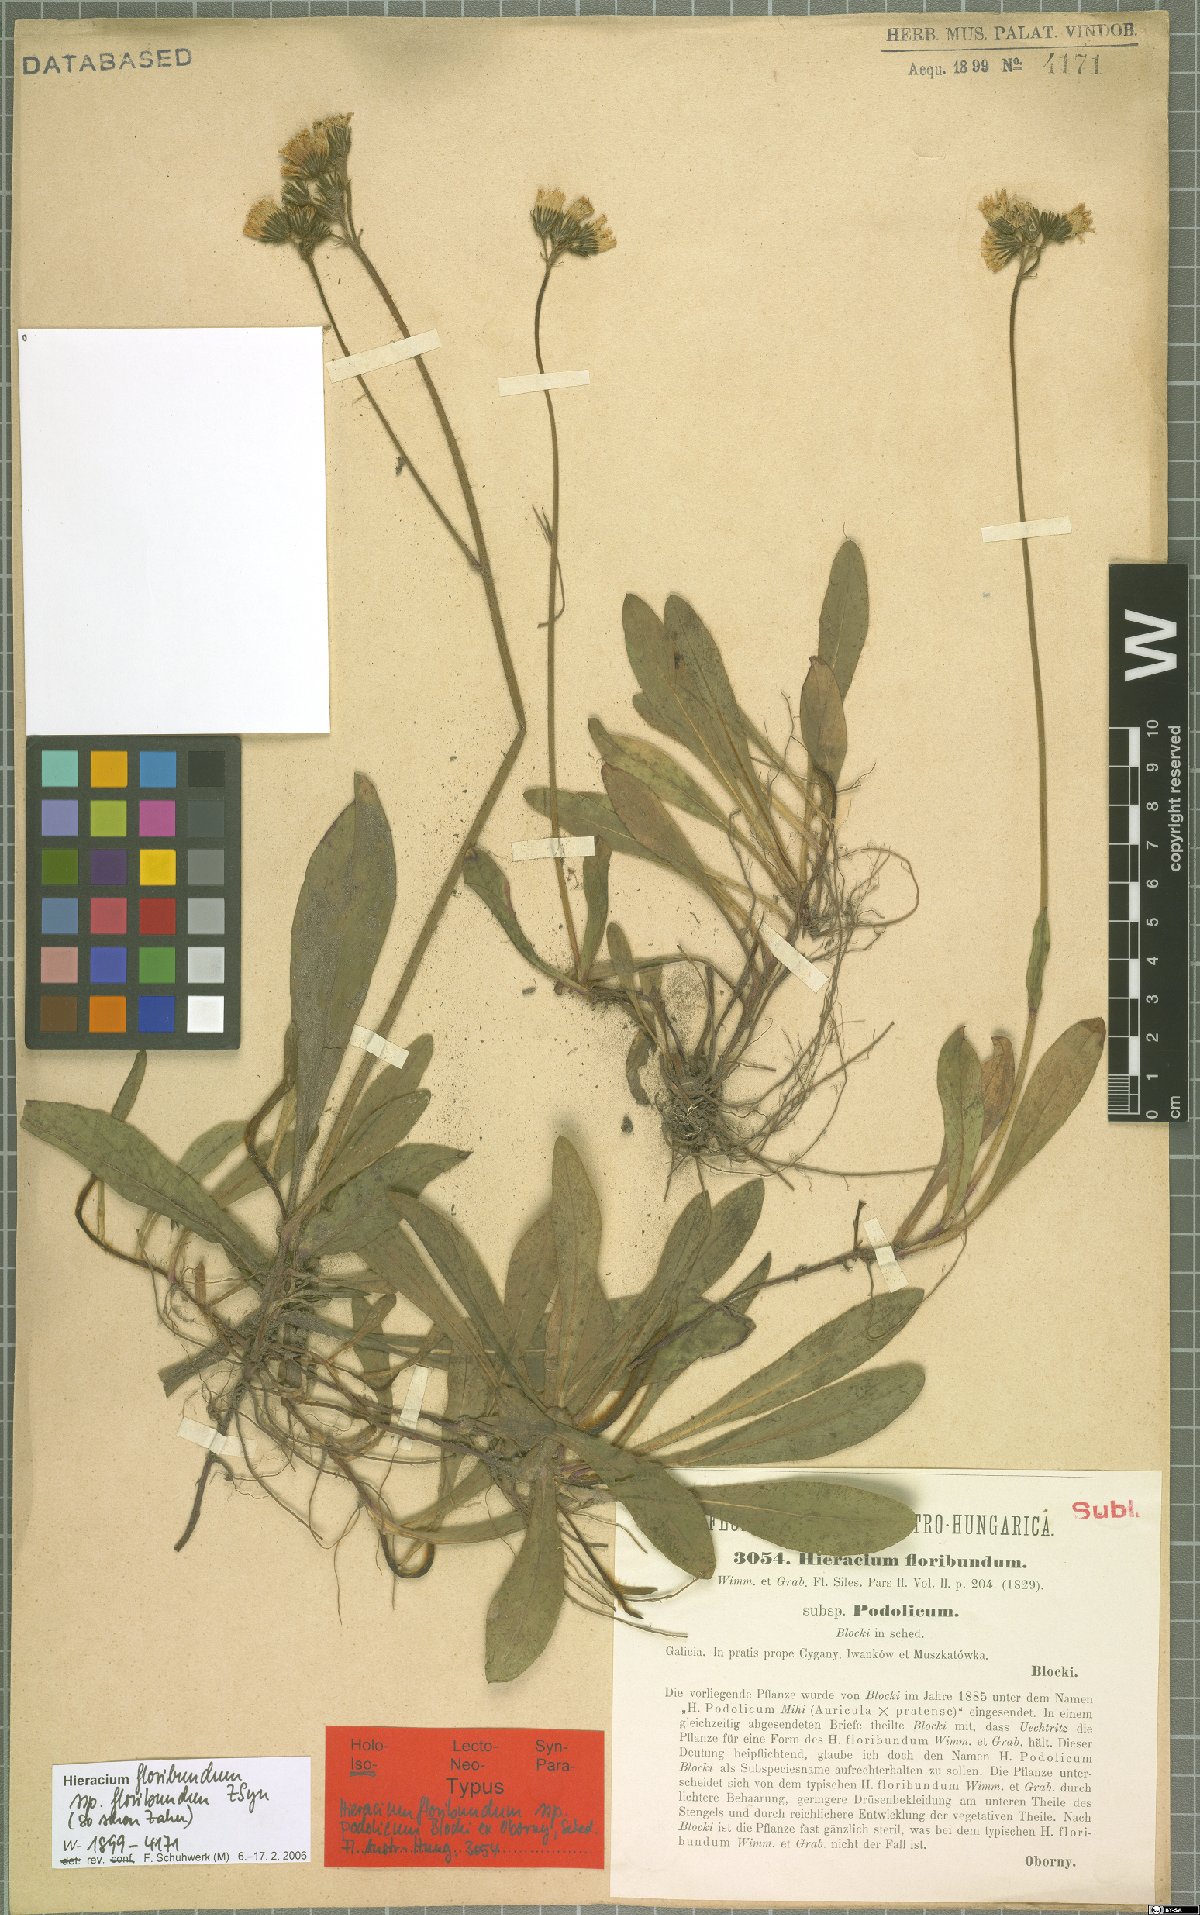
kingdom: Plantae
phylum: Tracheophyta
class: Magnoliopsida
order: Asterales
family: Asteraceae
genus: Pilosella
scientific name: Pilosella floribunda
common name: Glaucous hawkweed
